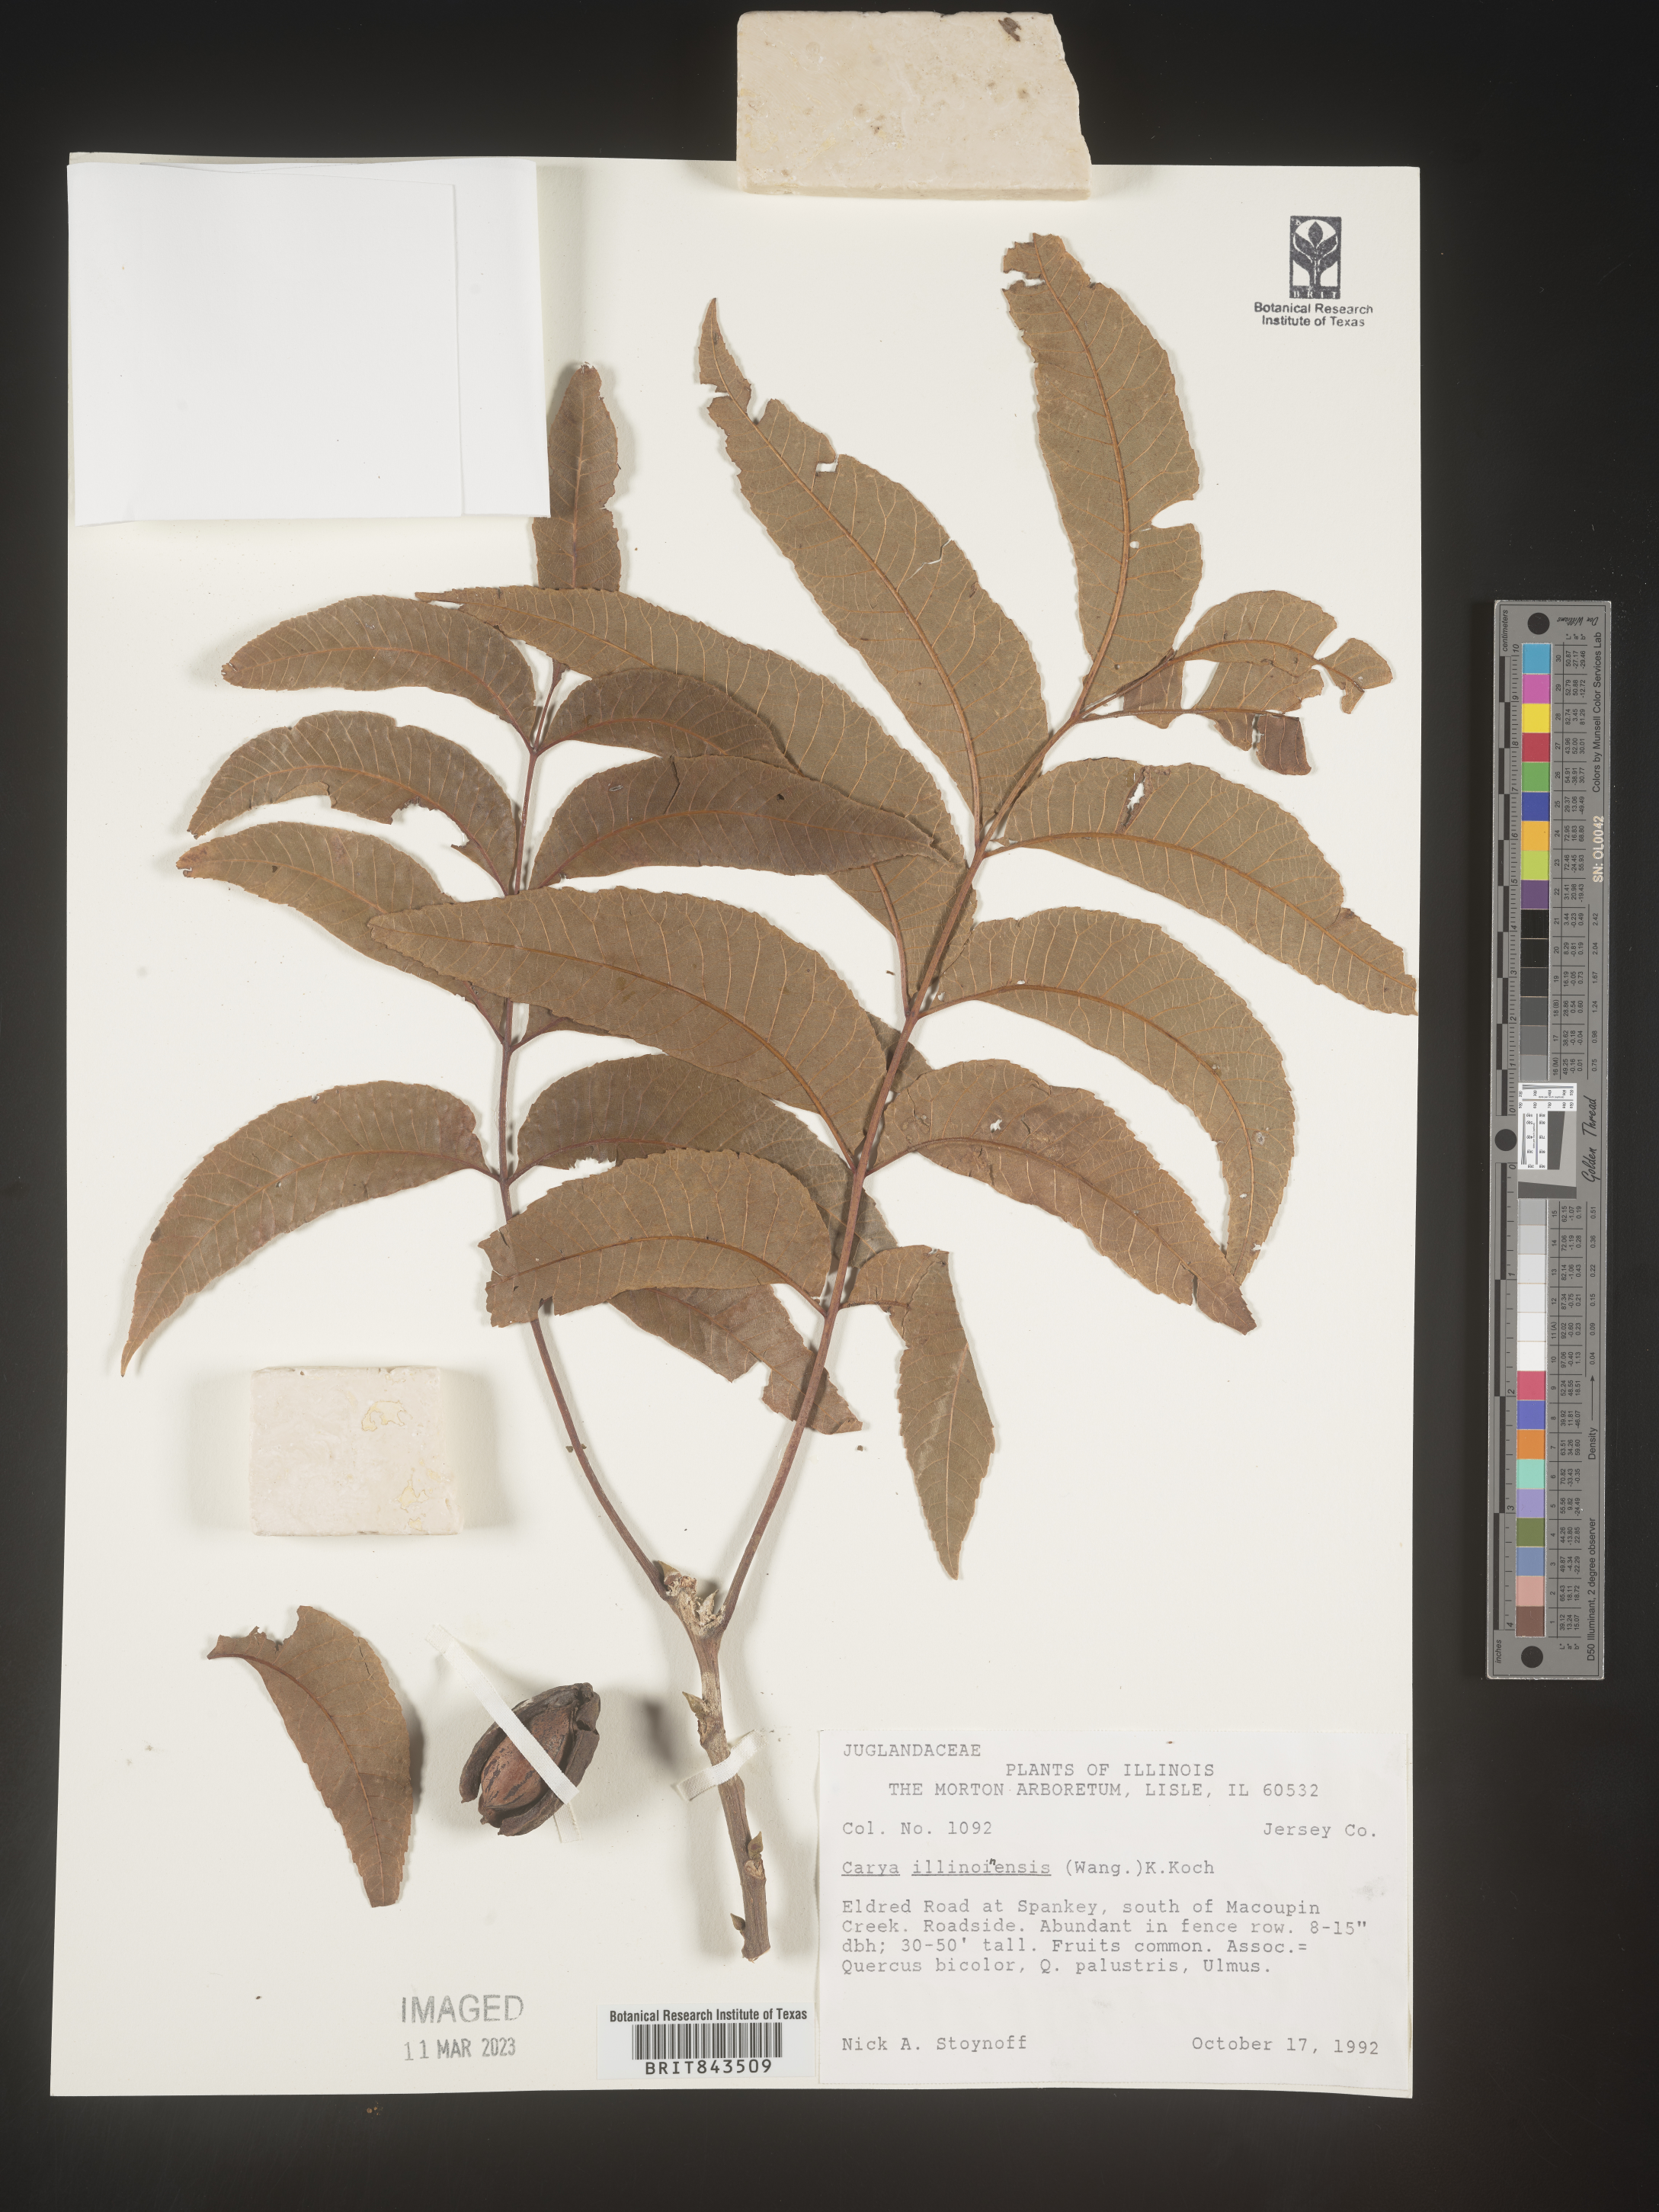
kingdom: Plantae
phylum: Tracheophyta
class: Magnoliopsida
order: Fagales
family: Juglandaceae
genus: Carya
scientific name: Carya illinoinensis
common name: Pecan
